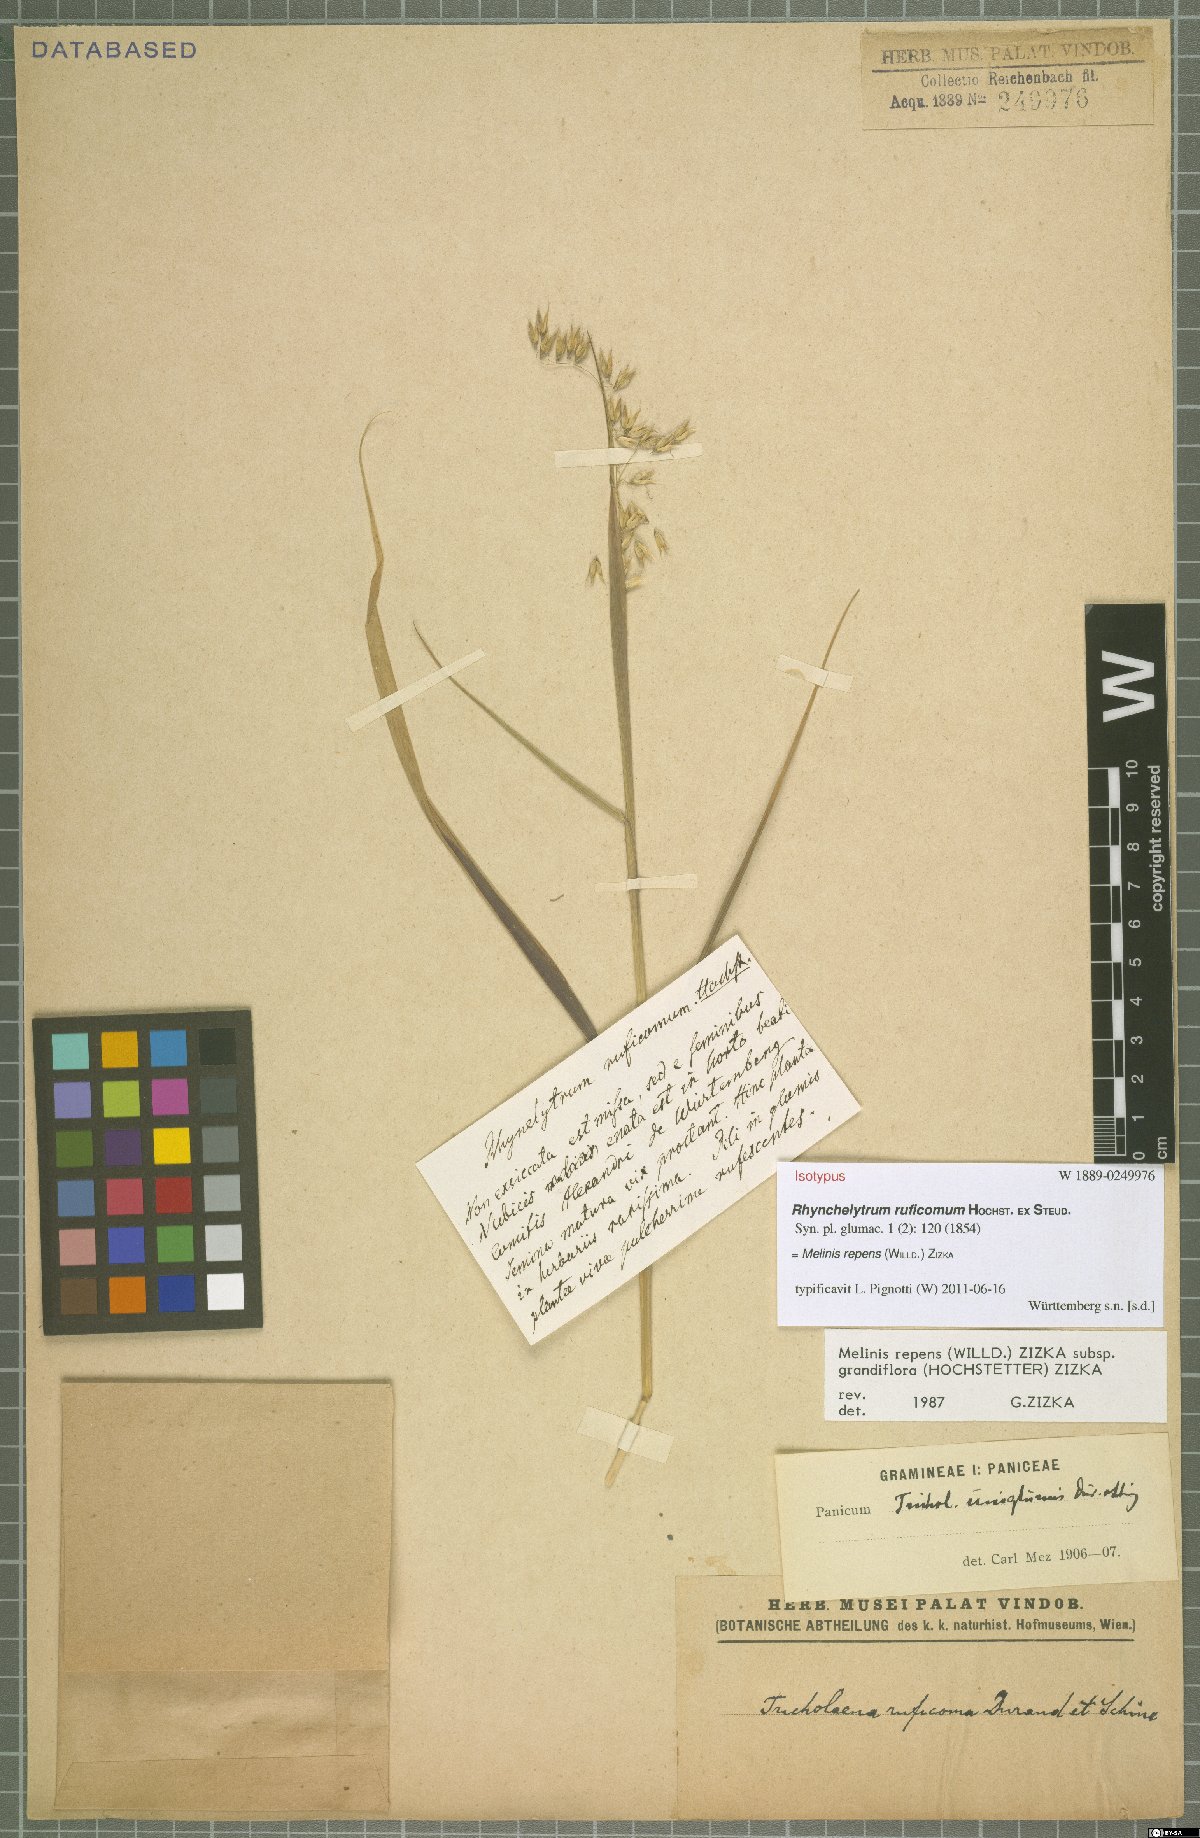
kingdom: Plantae
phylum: Tracheophyta
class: Liliopsida
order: Poales
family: Poaceae
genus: Melinis
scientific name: Melinis repens
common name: Rose natal grass
